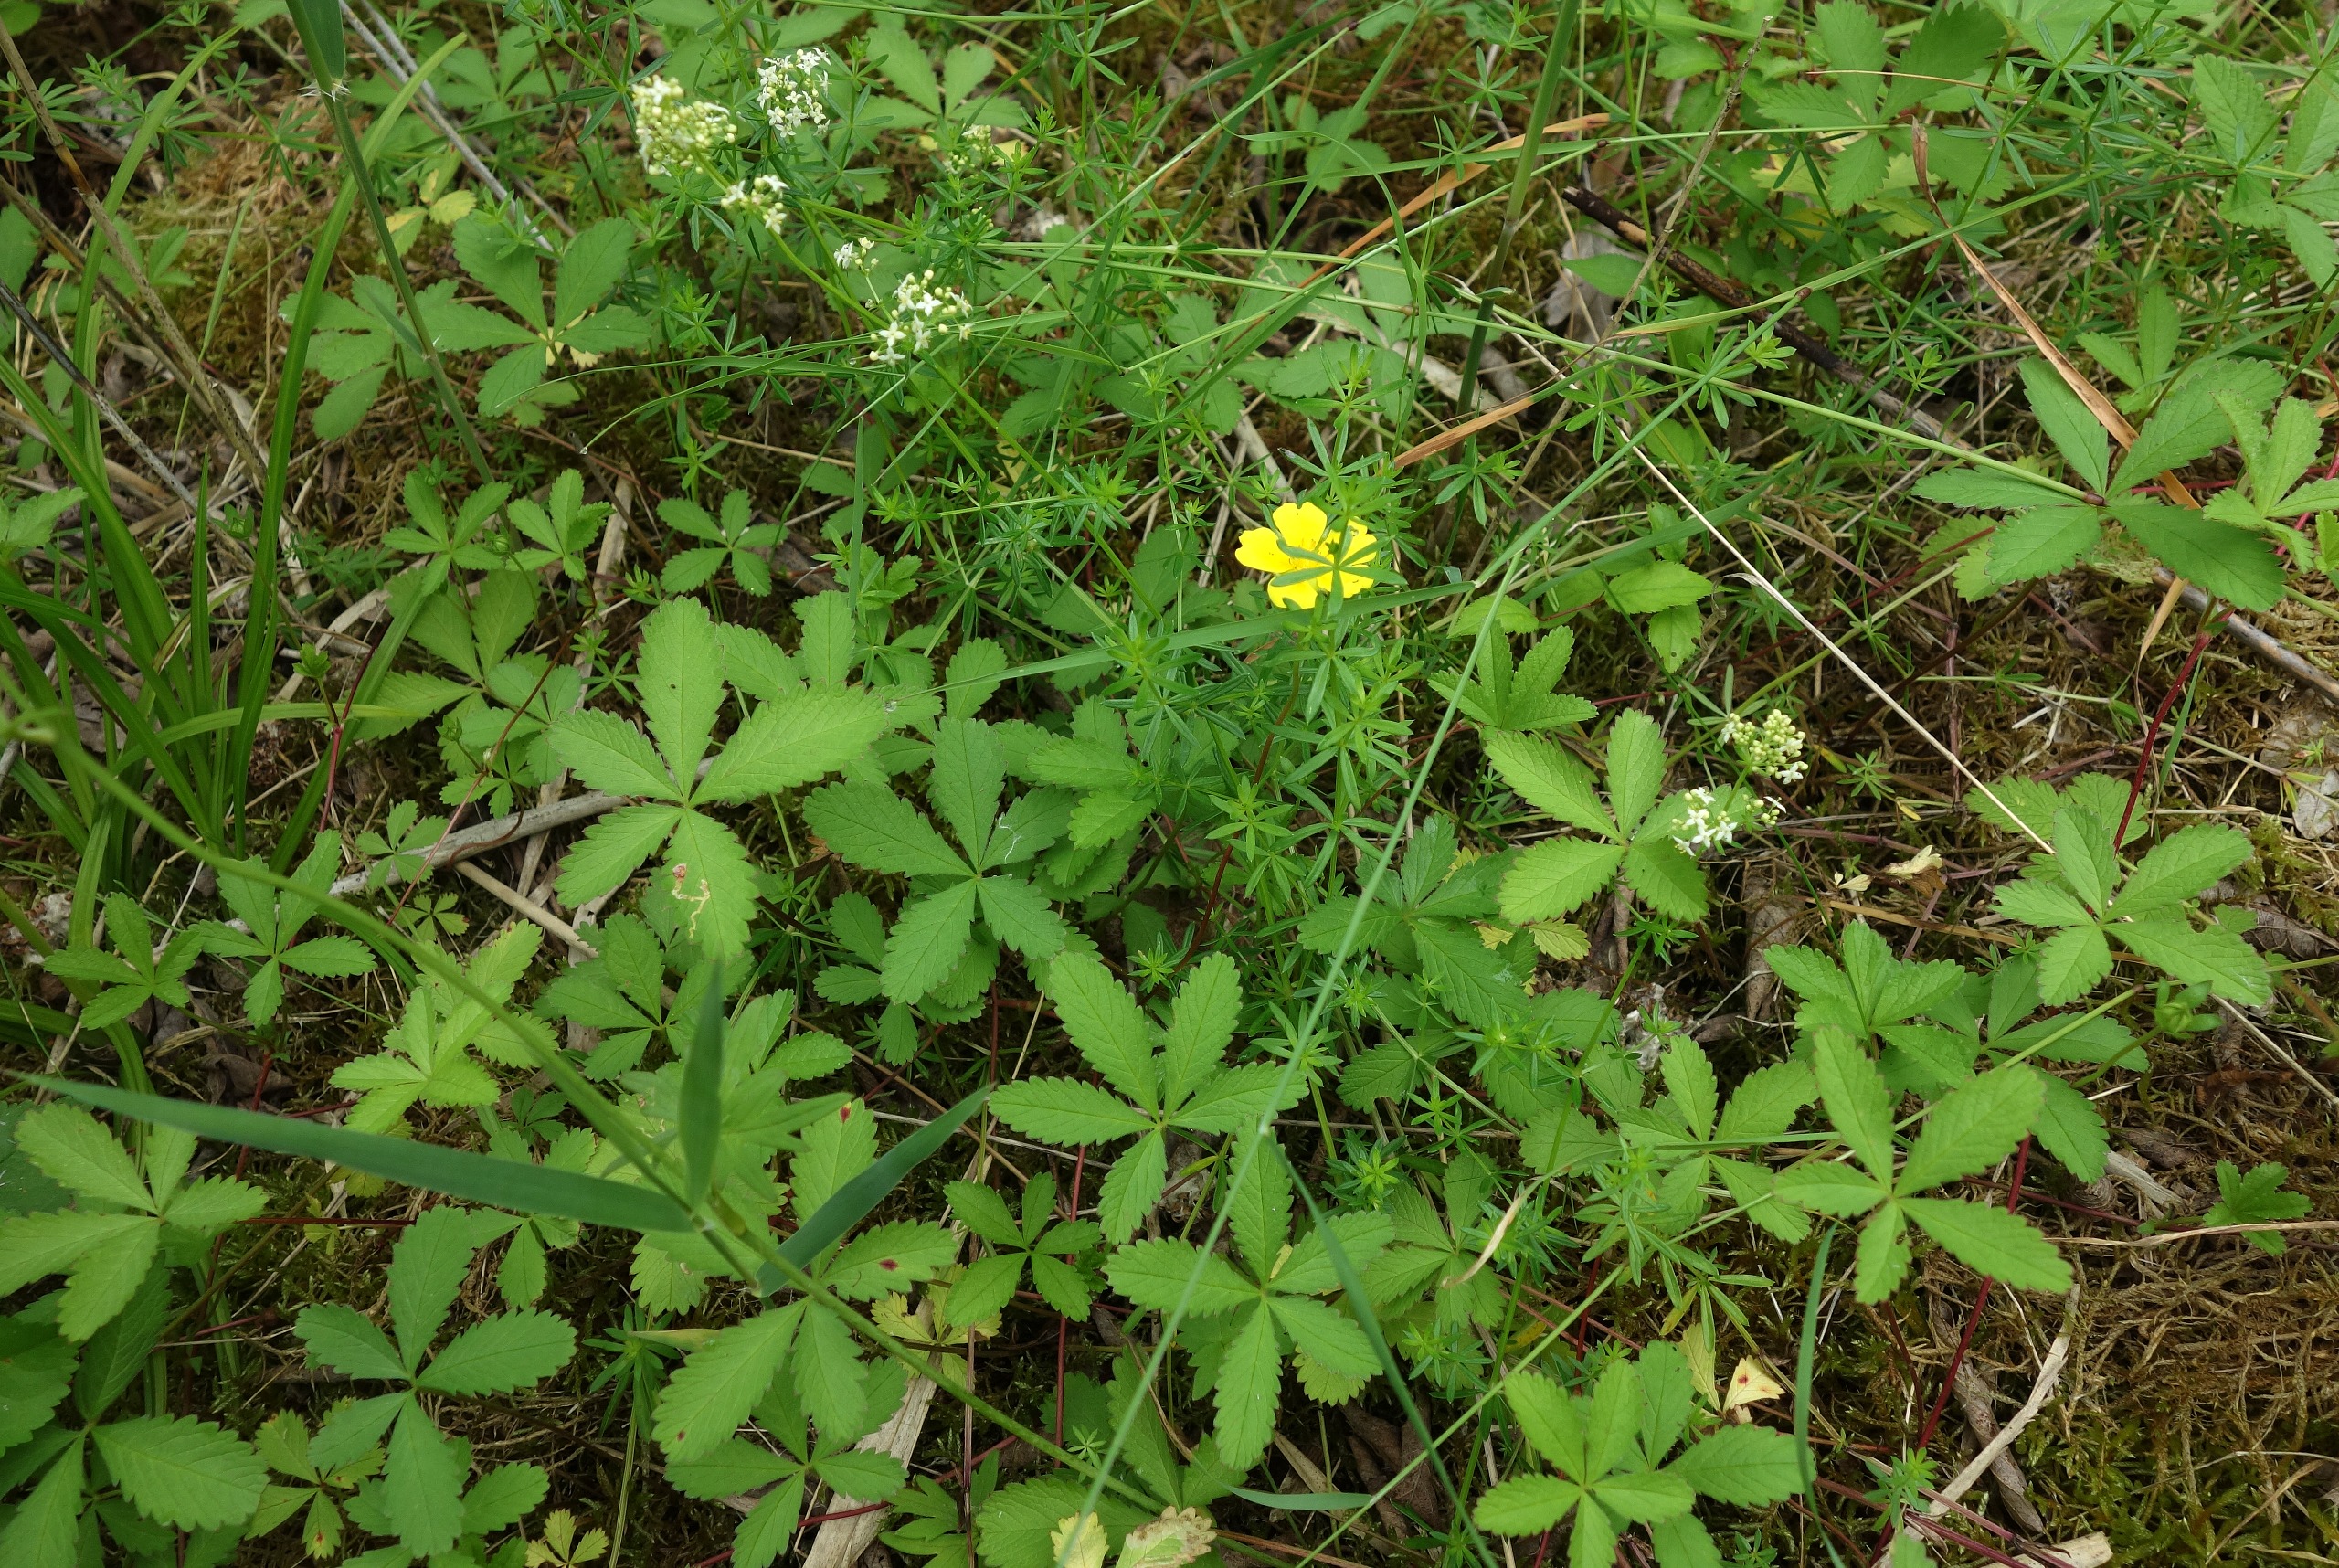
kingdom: Plantae
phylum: Tracheophyta
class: Magnoliopsida
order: Rosales
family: Rosaceae
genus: Potentilla
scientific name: Potentilla reptans
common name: Krybende potentil
